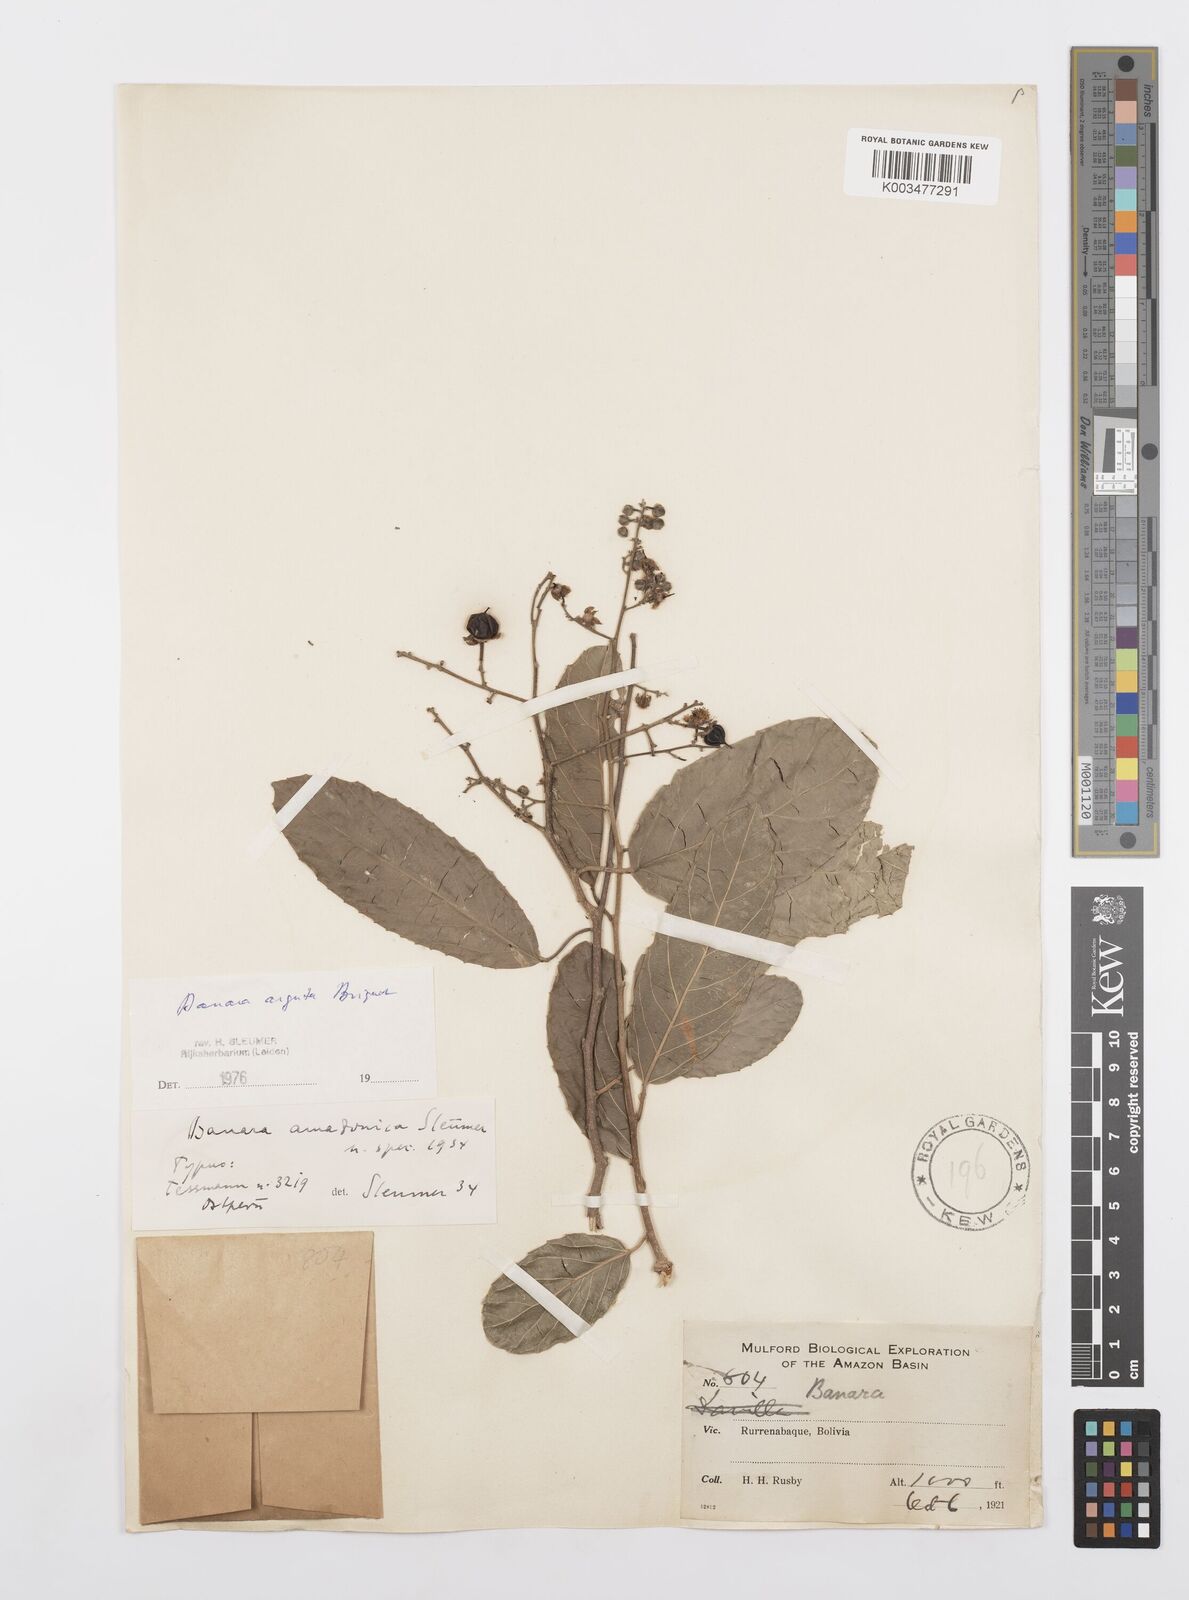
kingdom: Plantae
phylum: Tracheophyta
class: Magnoliopsida
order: Malpighiales
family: Salicaceae
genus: Banara
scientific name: Banara arguta
